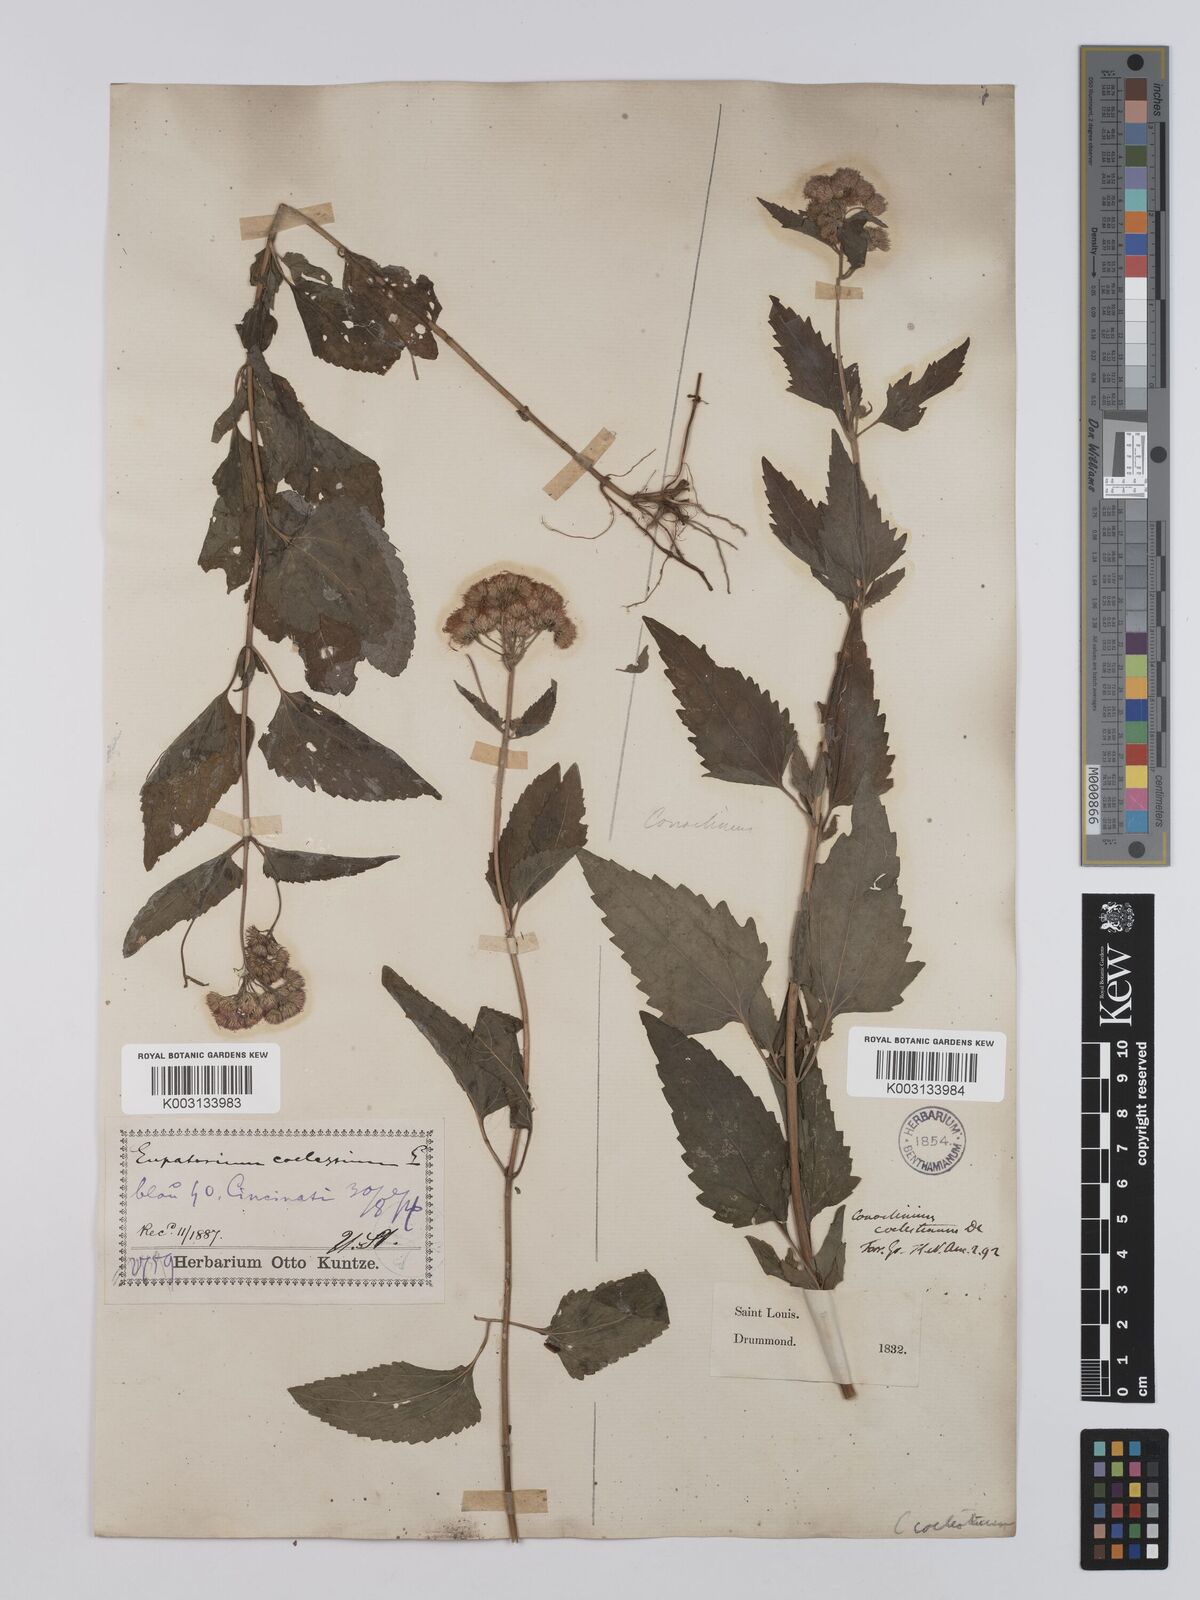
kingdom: Plantae
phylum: Tracheophyta
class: Magnoliopsida
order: Asterales
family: Asteraceae
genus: Conoclinium
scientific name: Conoclinium coelestinum
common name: Blue mistflower
